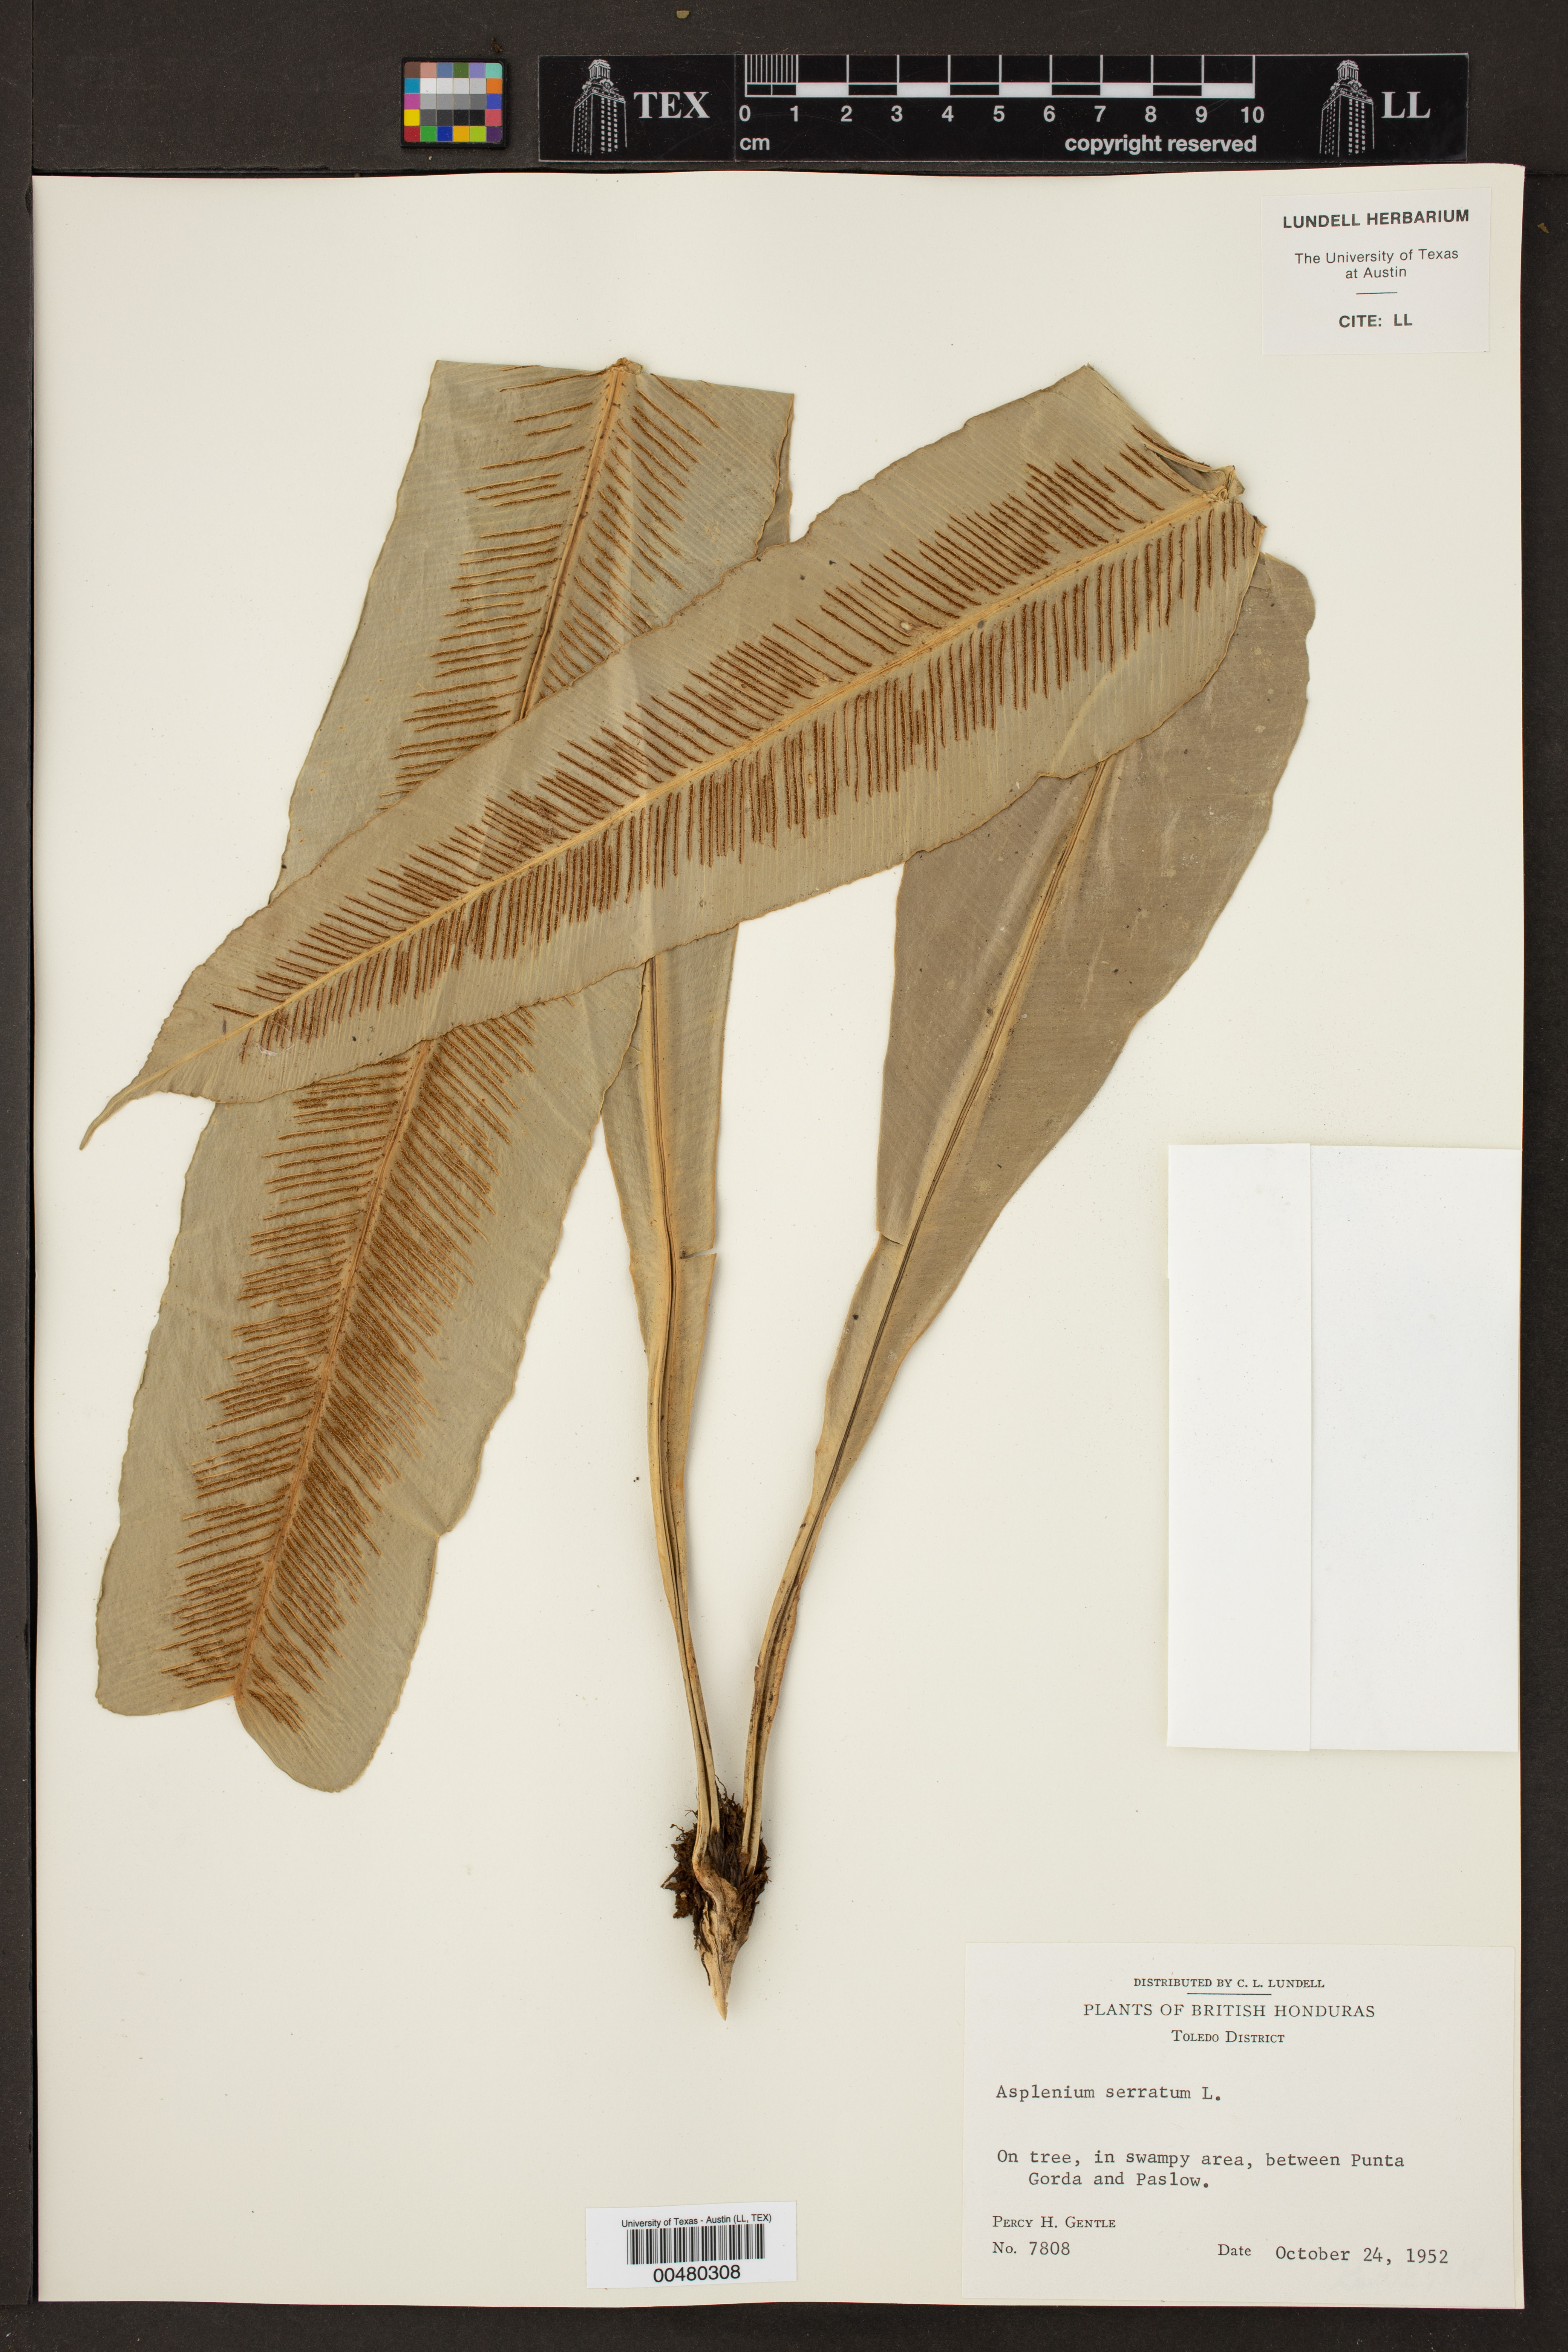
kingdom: Plantae
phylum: Tracheophyta
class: Polypodiopsida
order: Polypodiales
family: Aspleniaceae
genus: Asplenium
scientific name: Asplenium serratum
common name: Wild birdnest fern
